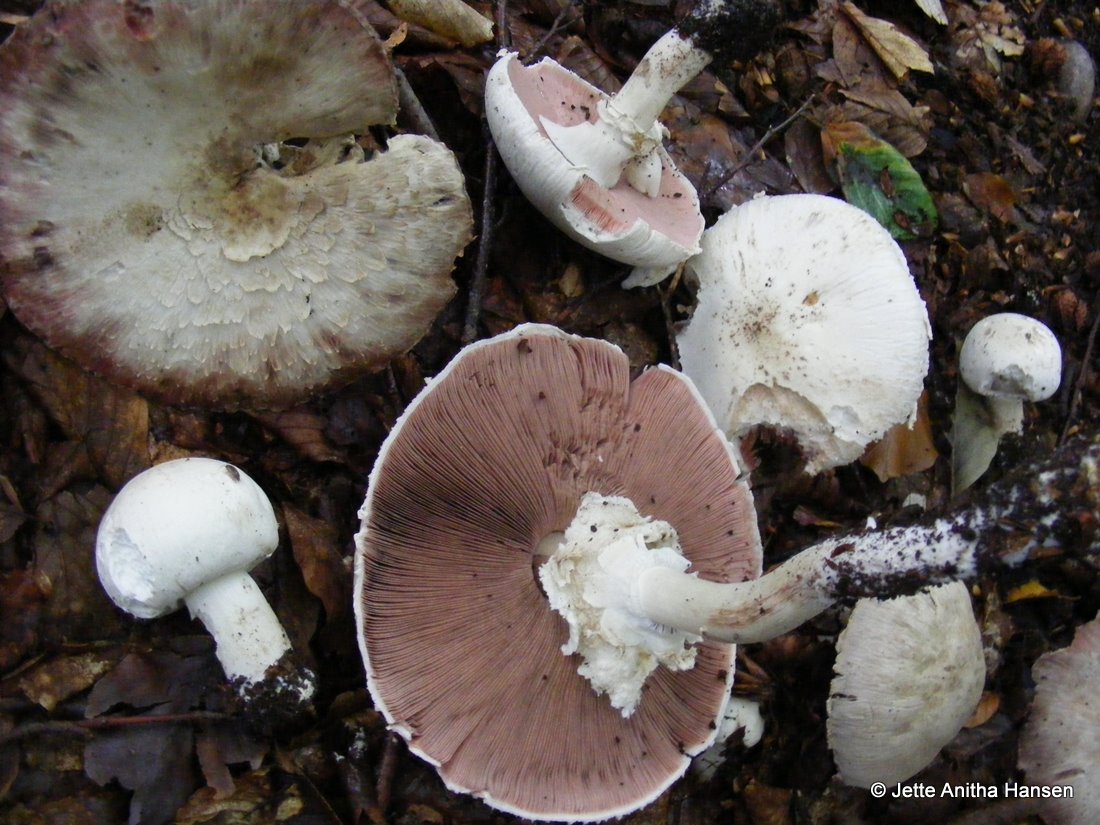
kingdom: Fungi
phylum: Basidiomycota
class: Agaricomycetes
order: Agaricales
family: Agaricaceae
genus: Agaricus
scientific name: Agaricus sylvicola
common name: gulhvid champignon
